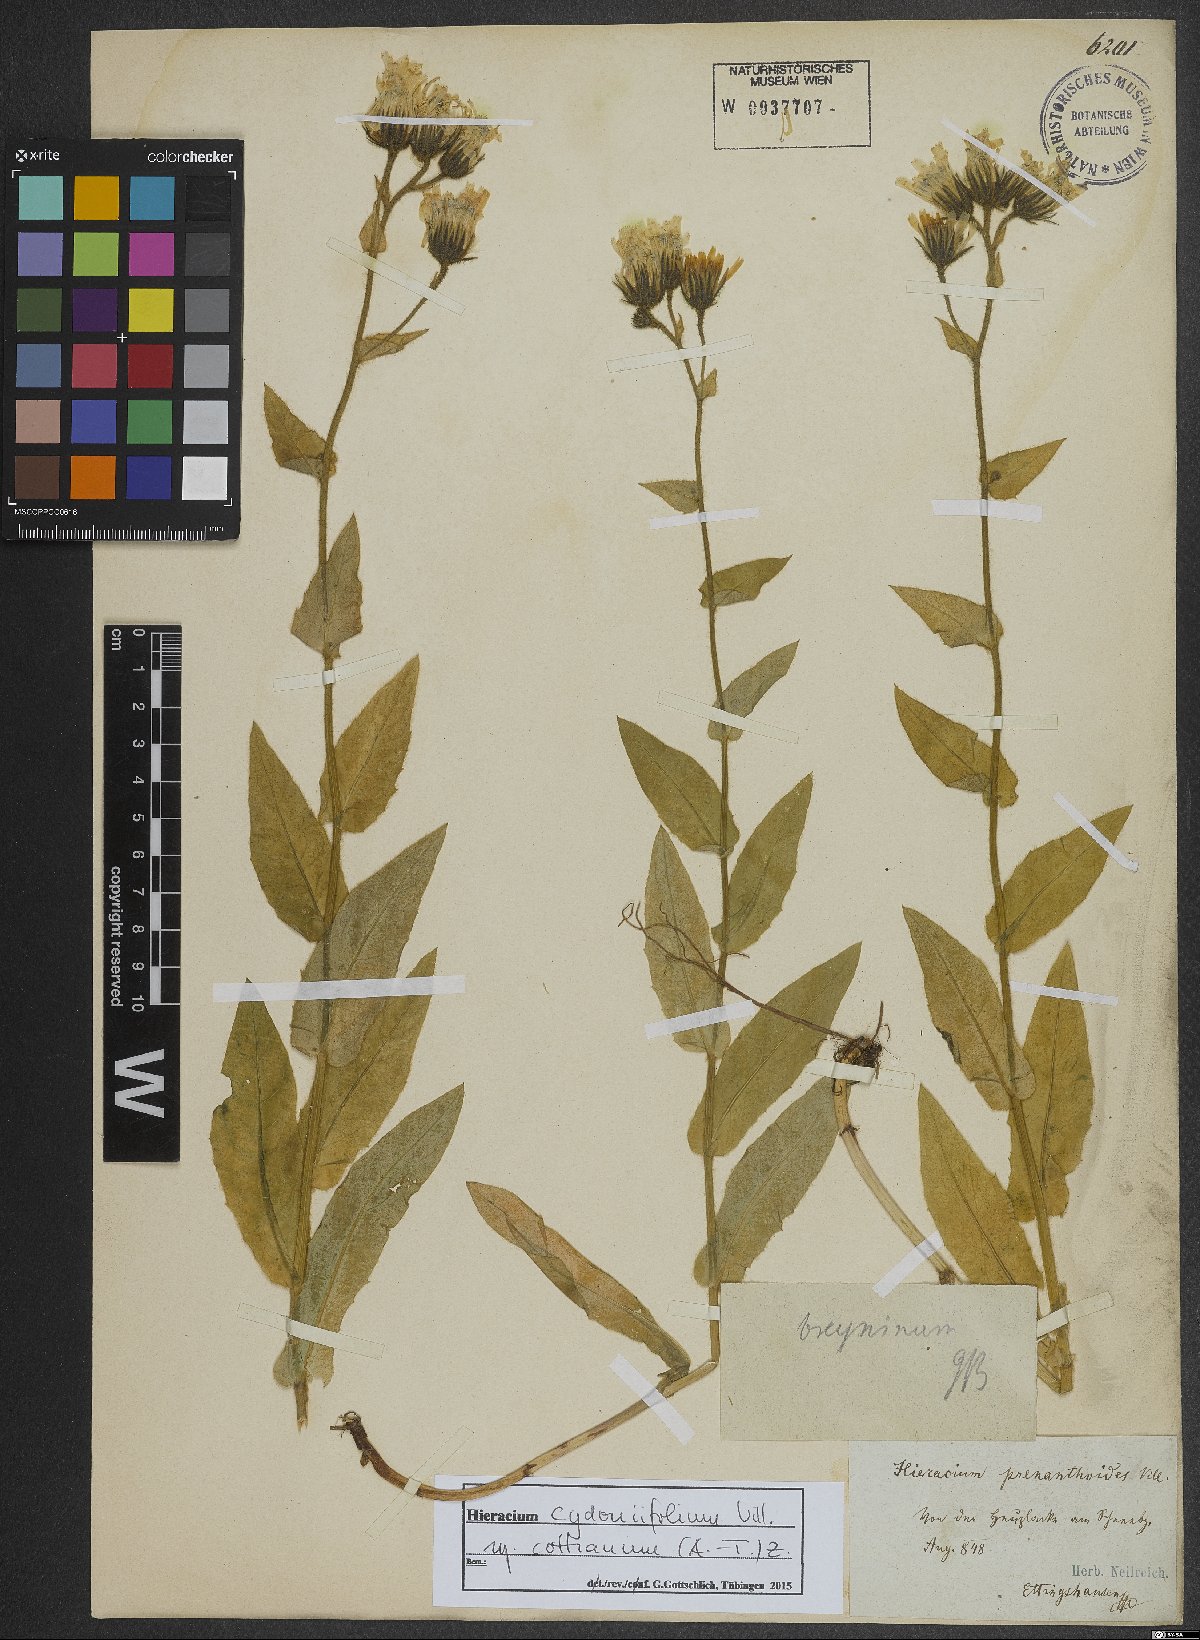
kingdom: Plantae
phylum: Tracheophyta
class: Magnoliopsida
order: Asterales
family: Asteraceae
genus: Hieracium
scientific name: Hieracium cydoniifolium
